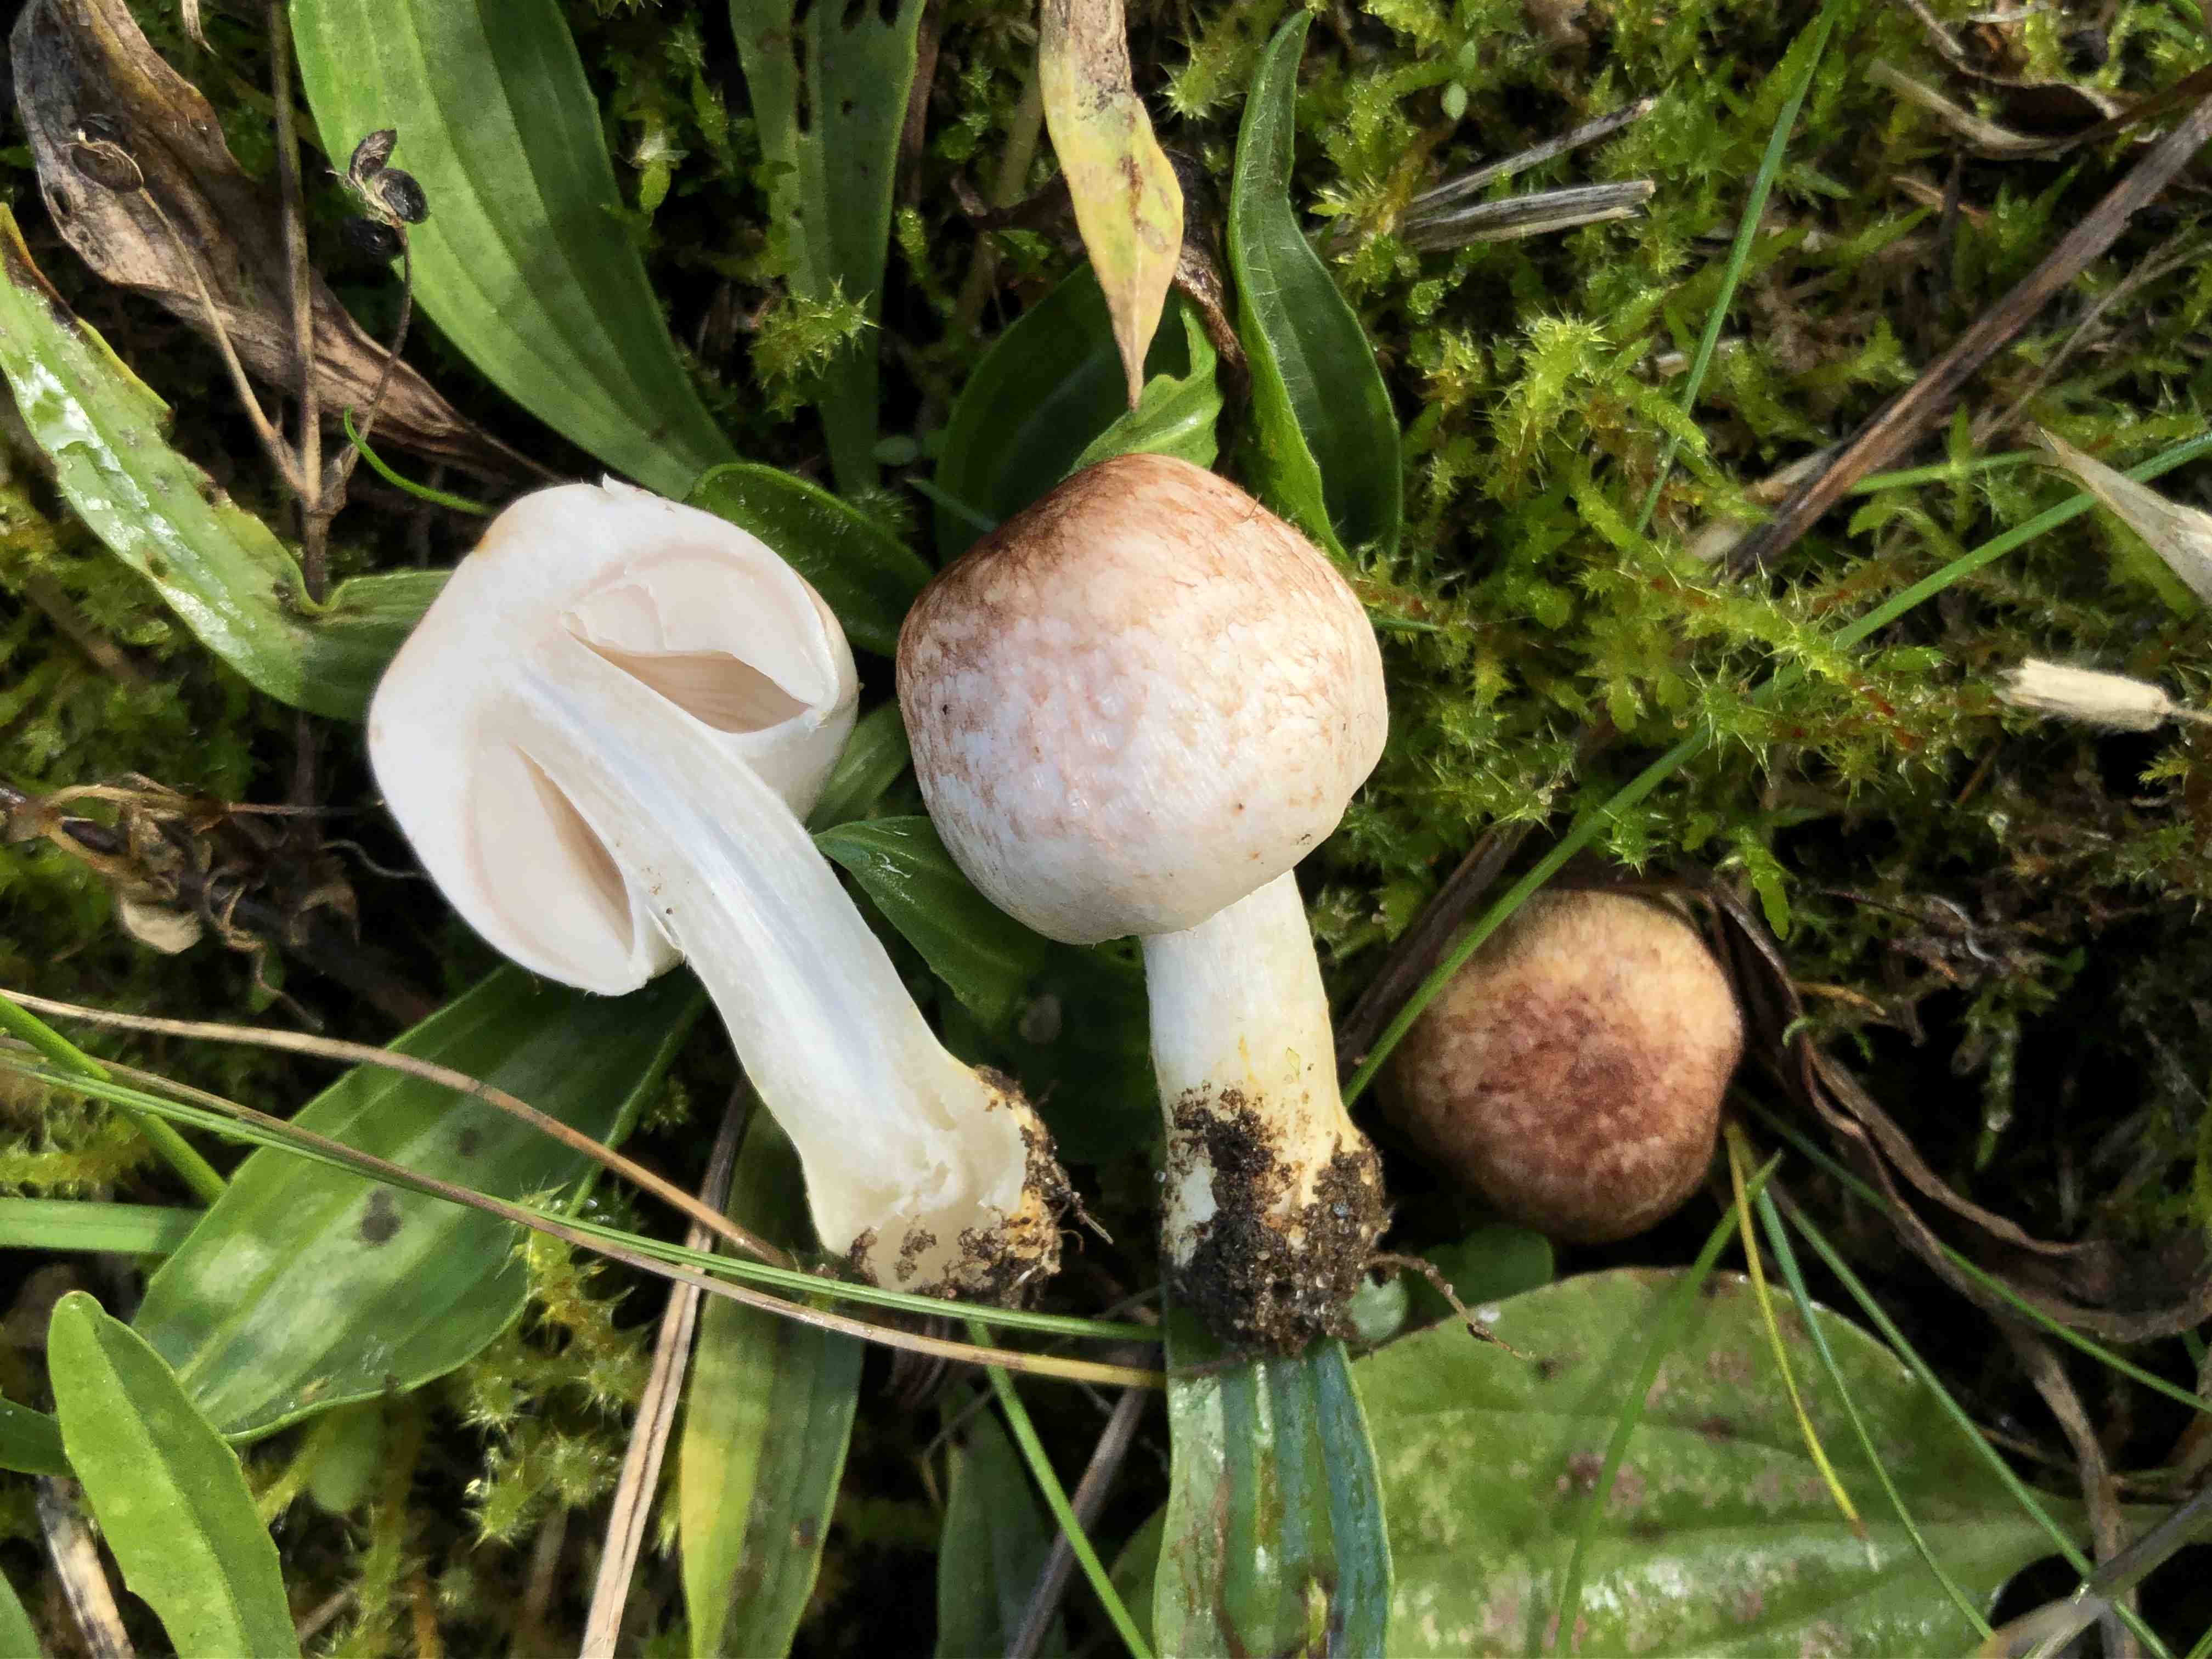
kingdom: Fungi
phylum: Basidiomycota
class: Agaricomycetes
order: Agaricales
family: Agaricaceae
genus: Agaricus
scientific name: Agaricus dulcidulus
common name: blegrød champignon
